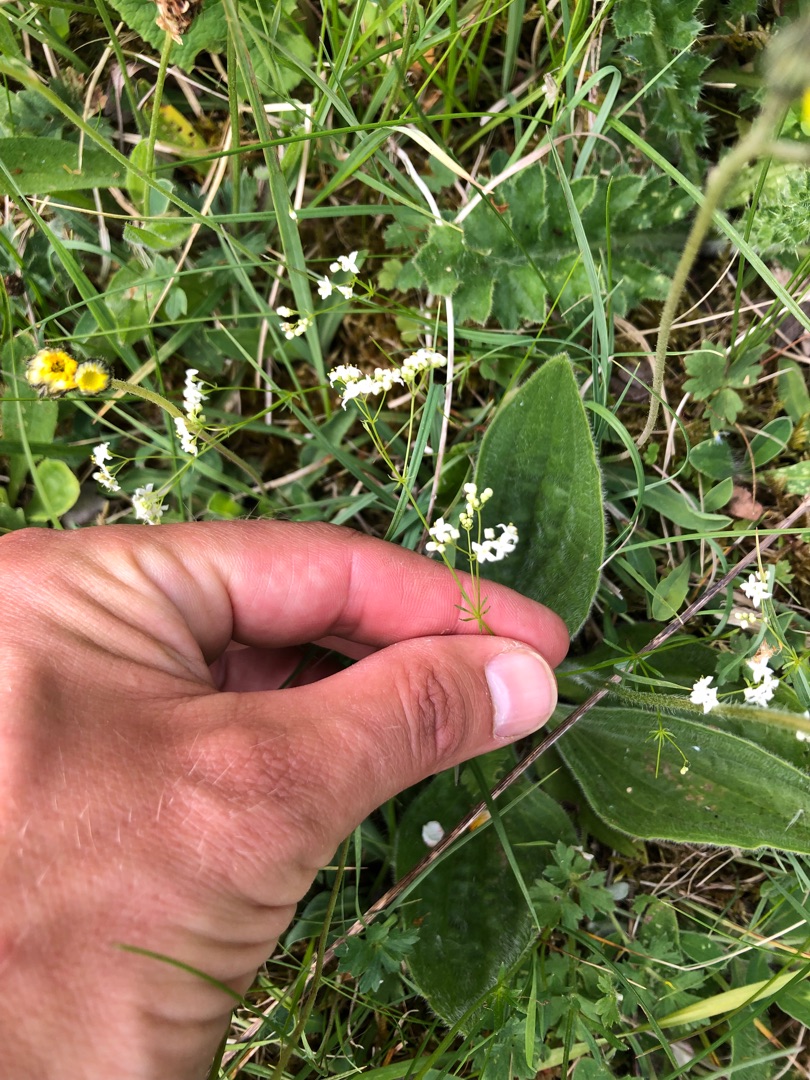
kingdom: Plantae
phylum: Tracheophyta
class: Magnoliopsida
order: Gentianales
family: Rubiaceae
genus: Galium
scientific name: Galium sterneri
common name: Liden snerre
